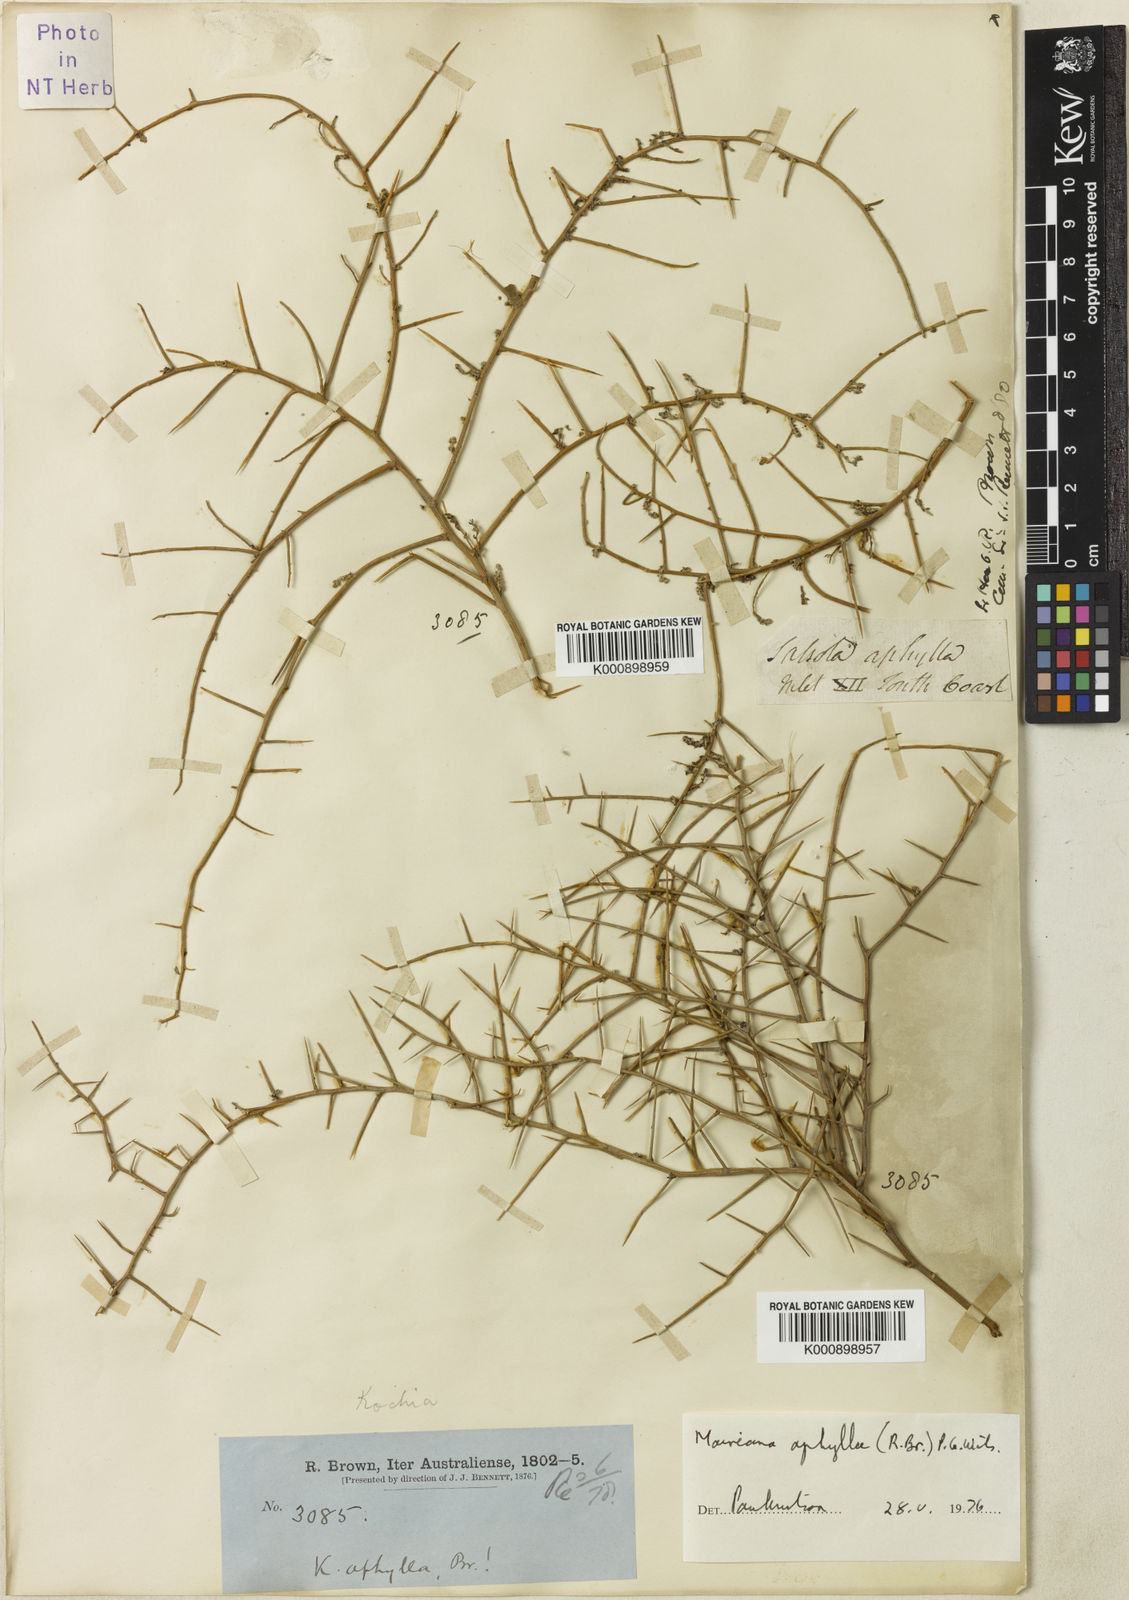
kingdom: Plantae
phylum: Tracheophyta
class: Magnoliopsida
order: Caryophyllales
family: Amaranthaceae
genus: Maireana
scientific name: Maireana aphylla
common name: Cottonbush
